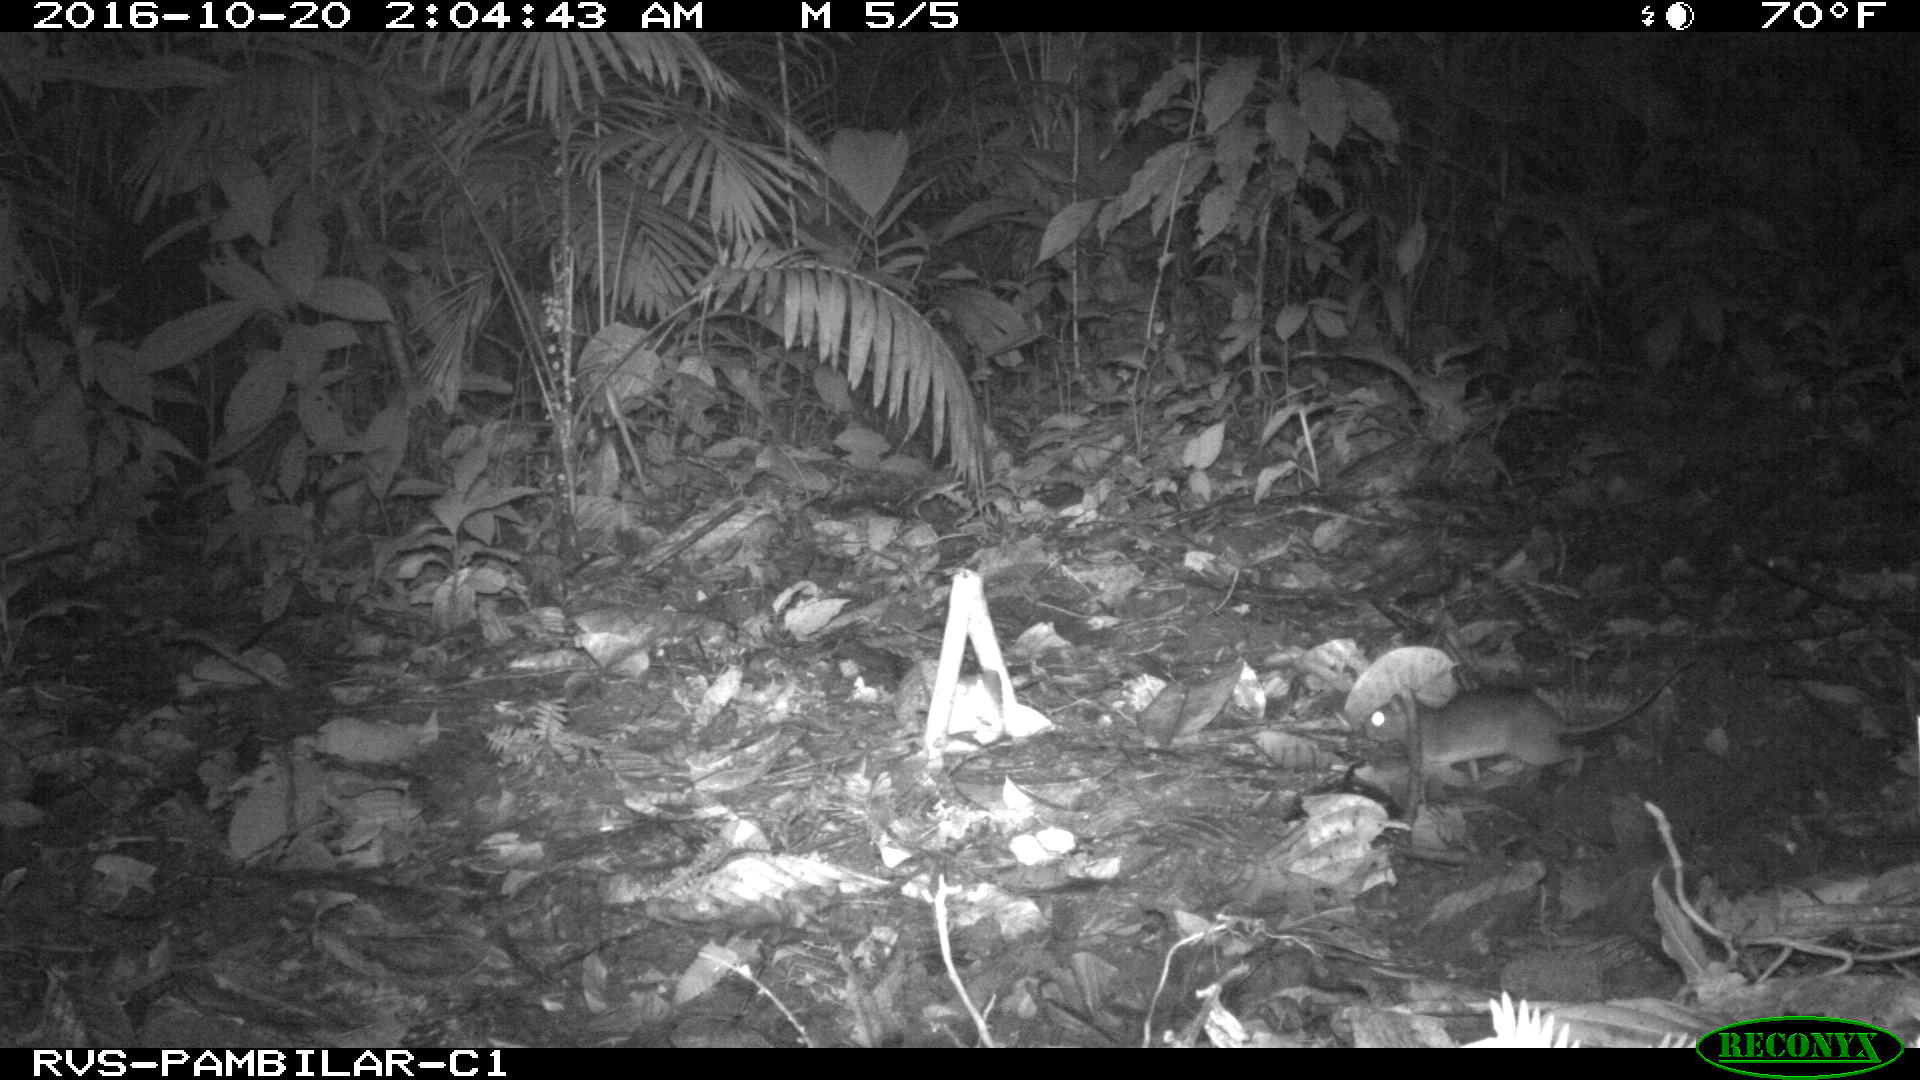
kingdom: Animalia
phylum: Chordata
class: Mammalia
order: Rodentia
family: Echimyidae
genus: Proechimys
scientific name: Proechimys
